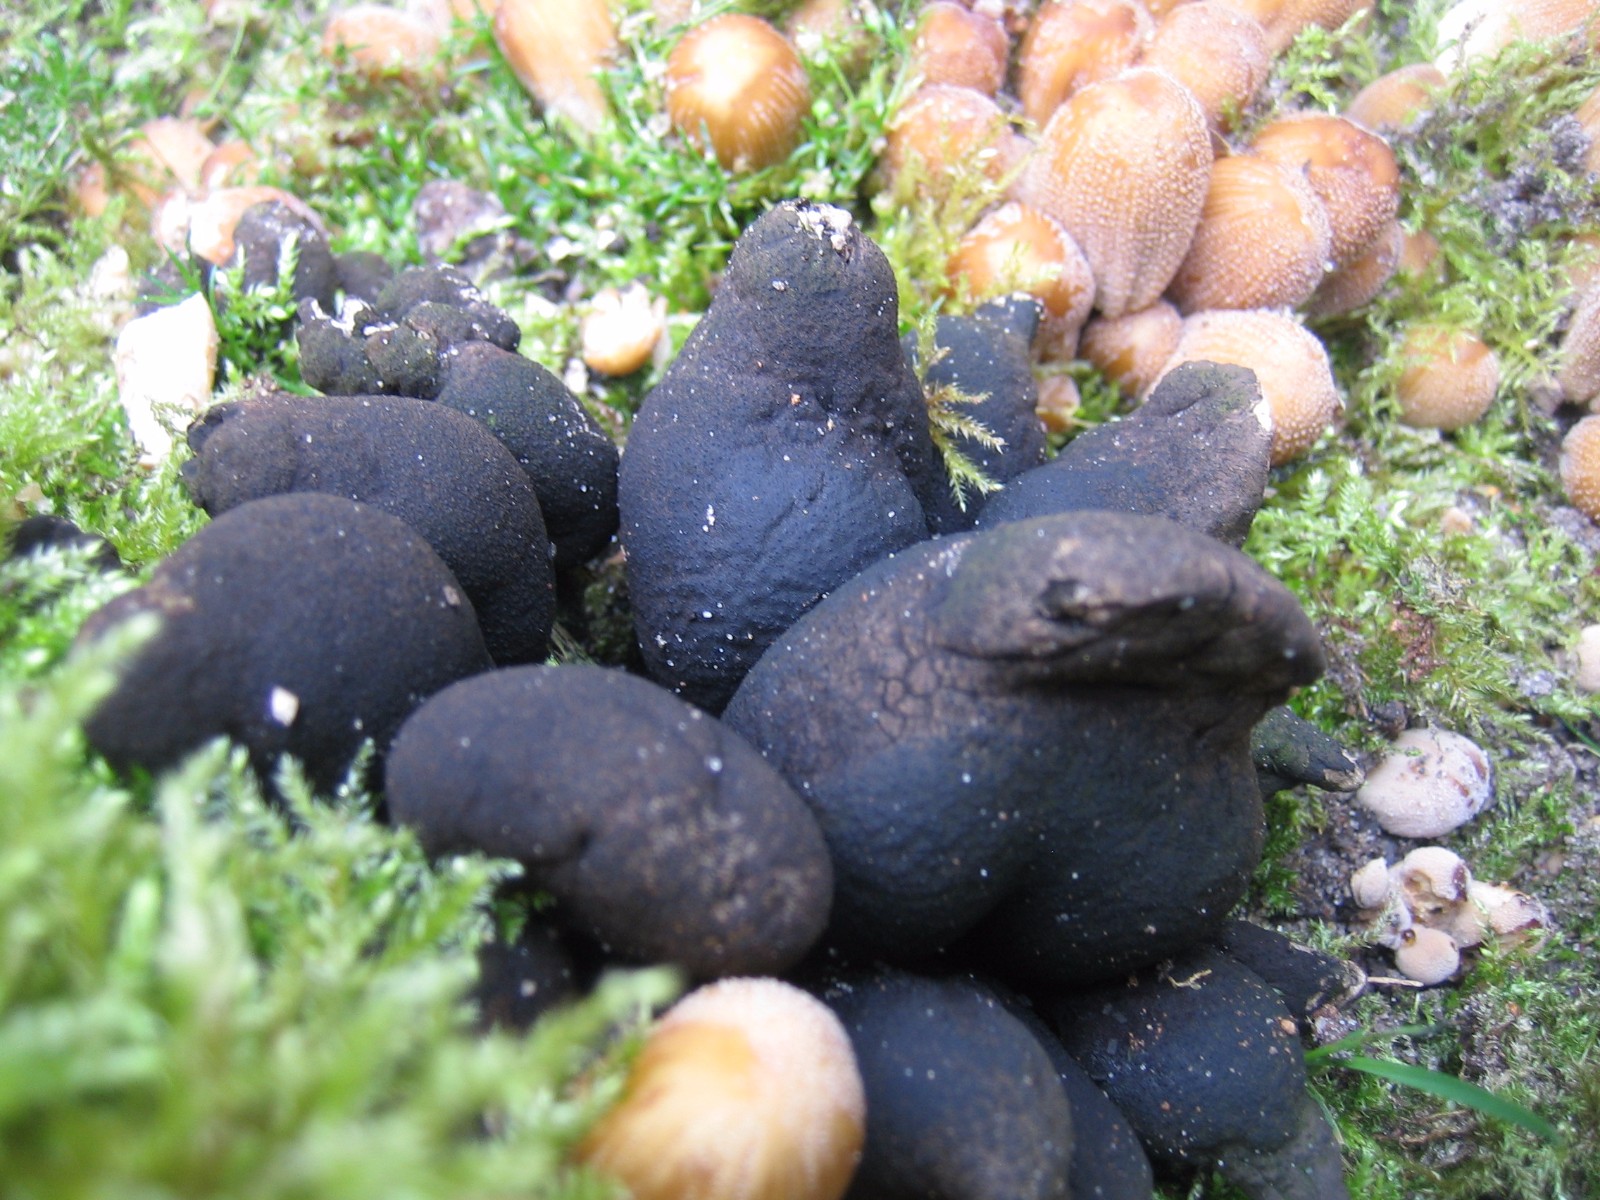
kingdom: Fungi
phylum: Ascomycota
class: Sordariomycetes
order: Xylariales
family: Xylariaceae
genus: Xylaria
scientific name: Xylaria polymorpha
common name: kølle-stødsvamp
